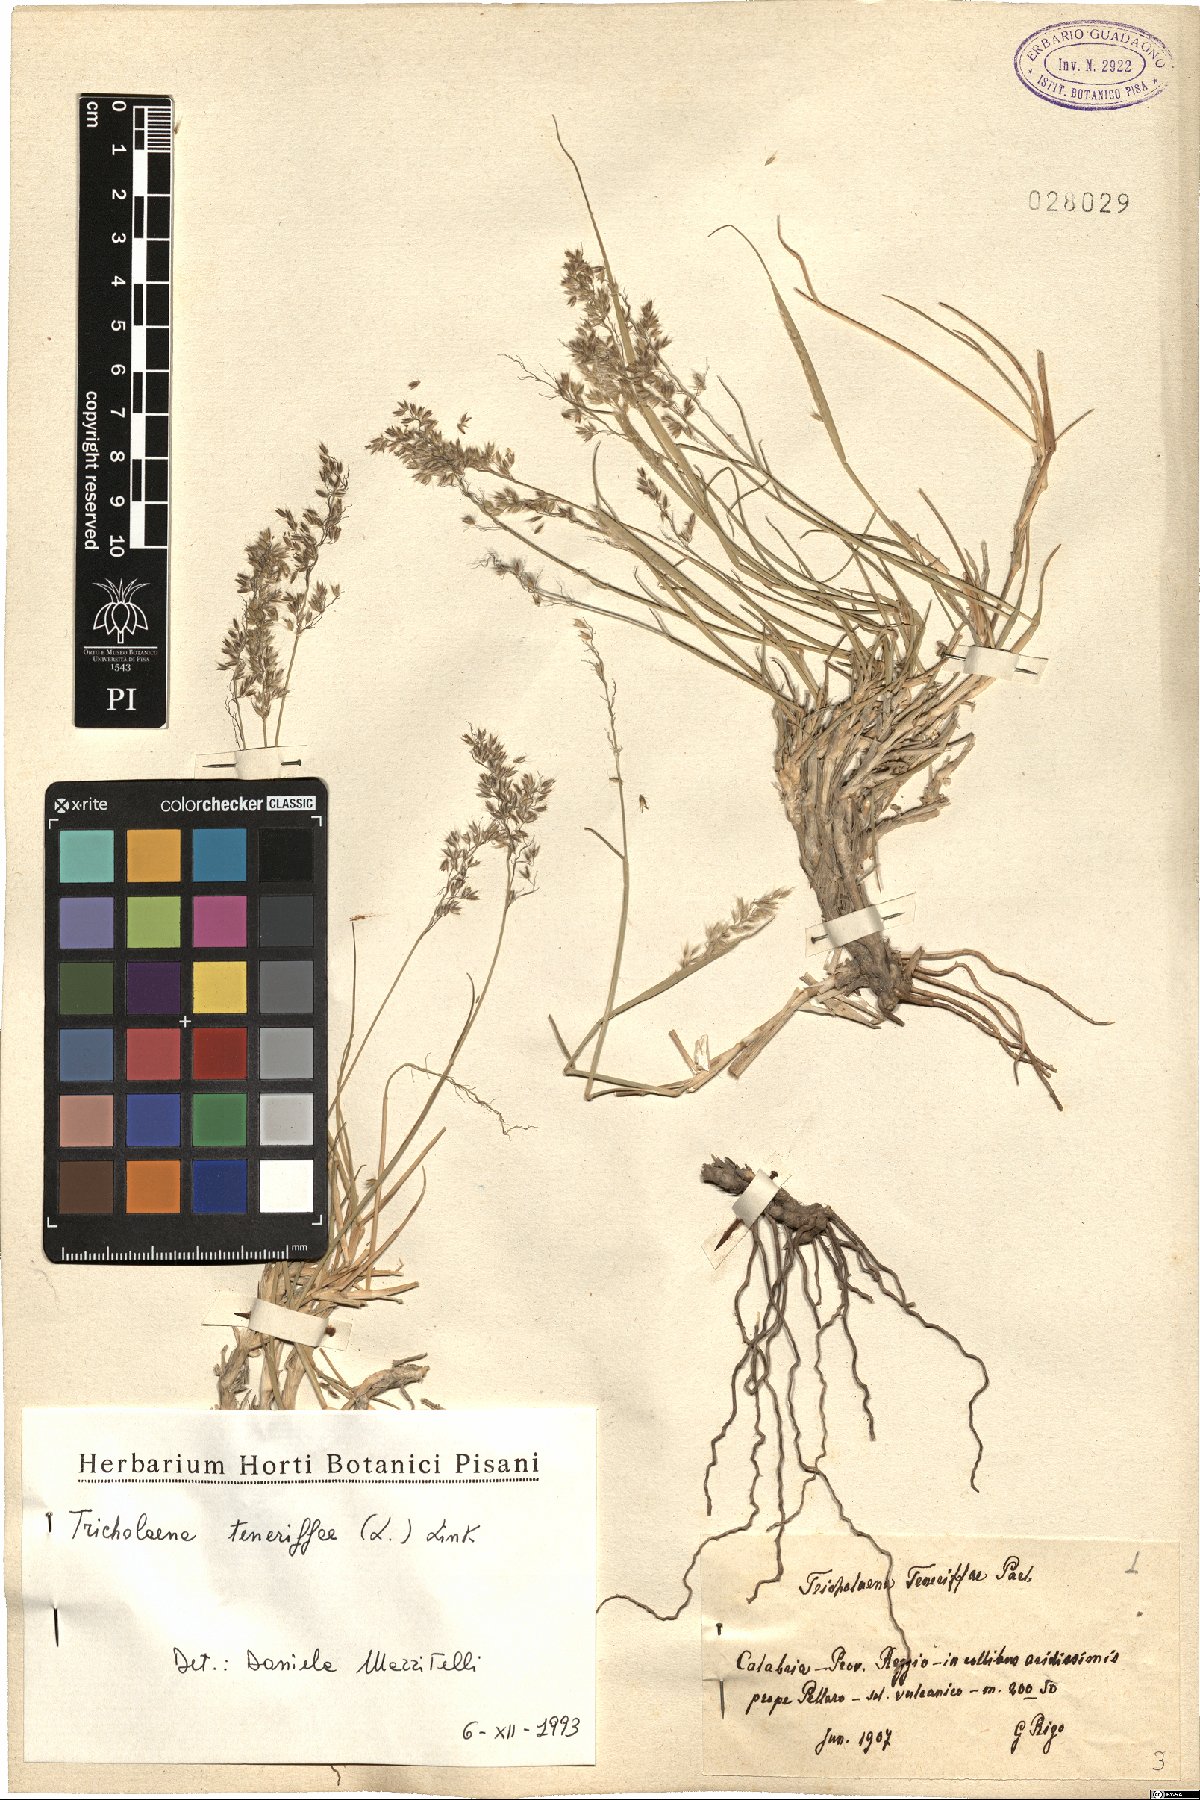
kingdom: Plantae
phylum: Tracheophyta
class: Liliopsida
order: Poales
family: Poaceae
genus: Tricholaena
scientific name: Tricholaena teneriffae
